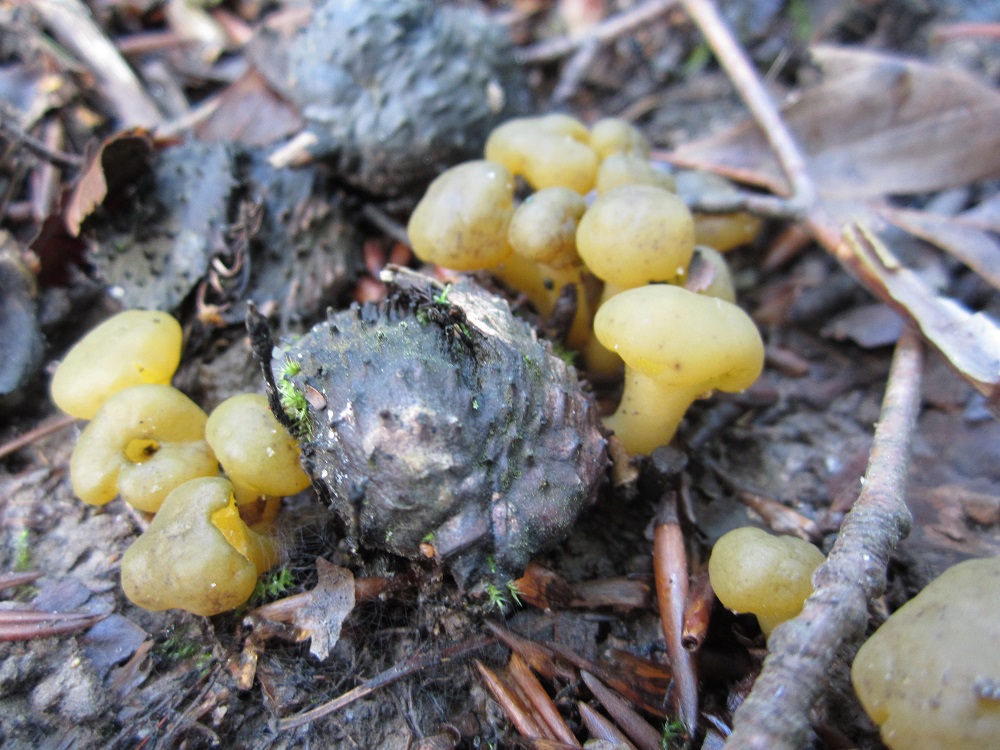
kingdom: Fungi
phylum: Ascomycota
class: Leotiomycetes
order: Leotiales
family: Leotiaceae
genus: Leotia
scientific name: Leotia lubrica
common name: ravsvamp
